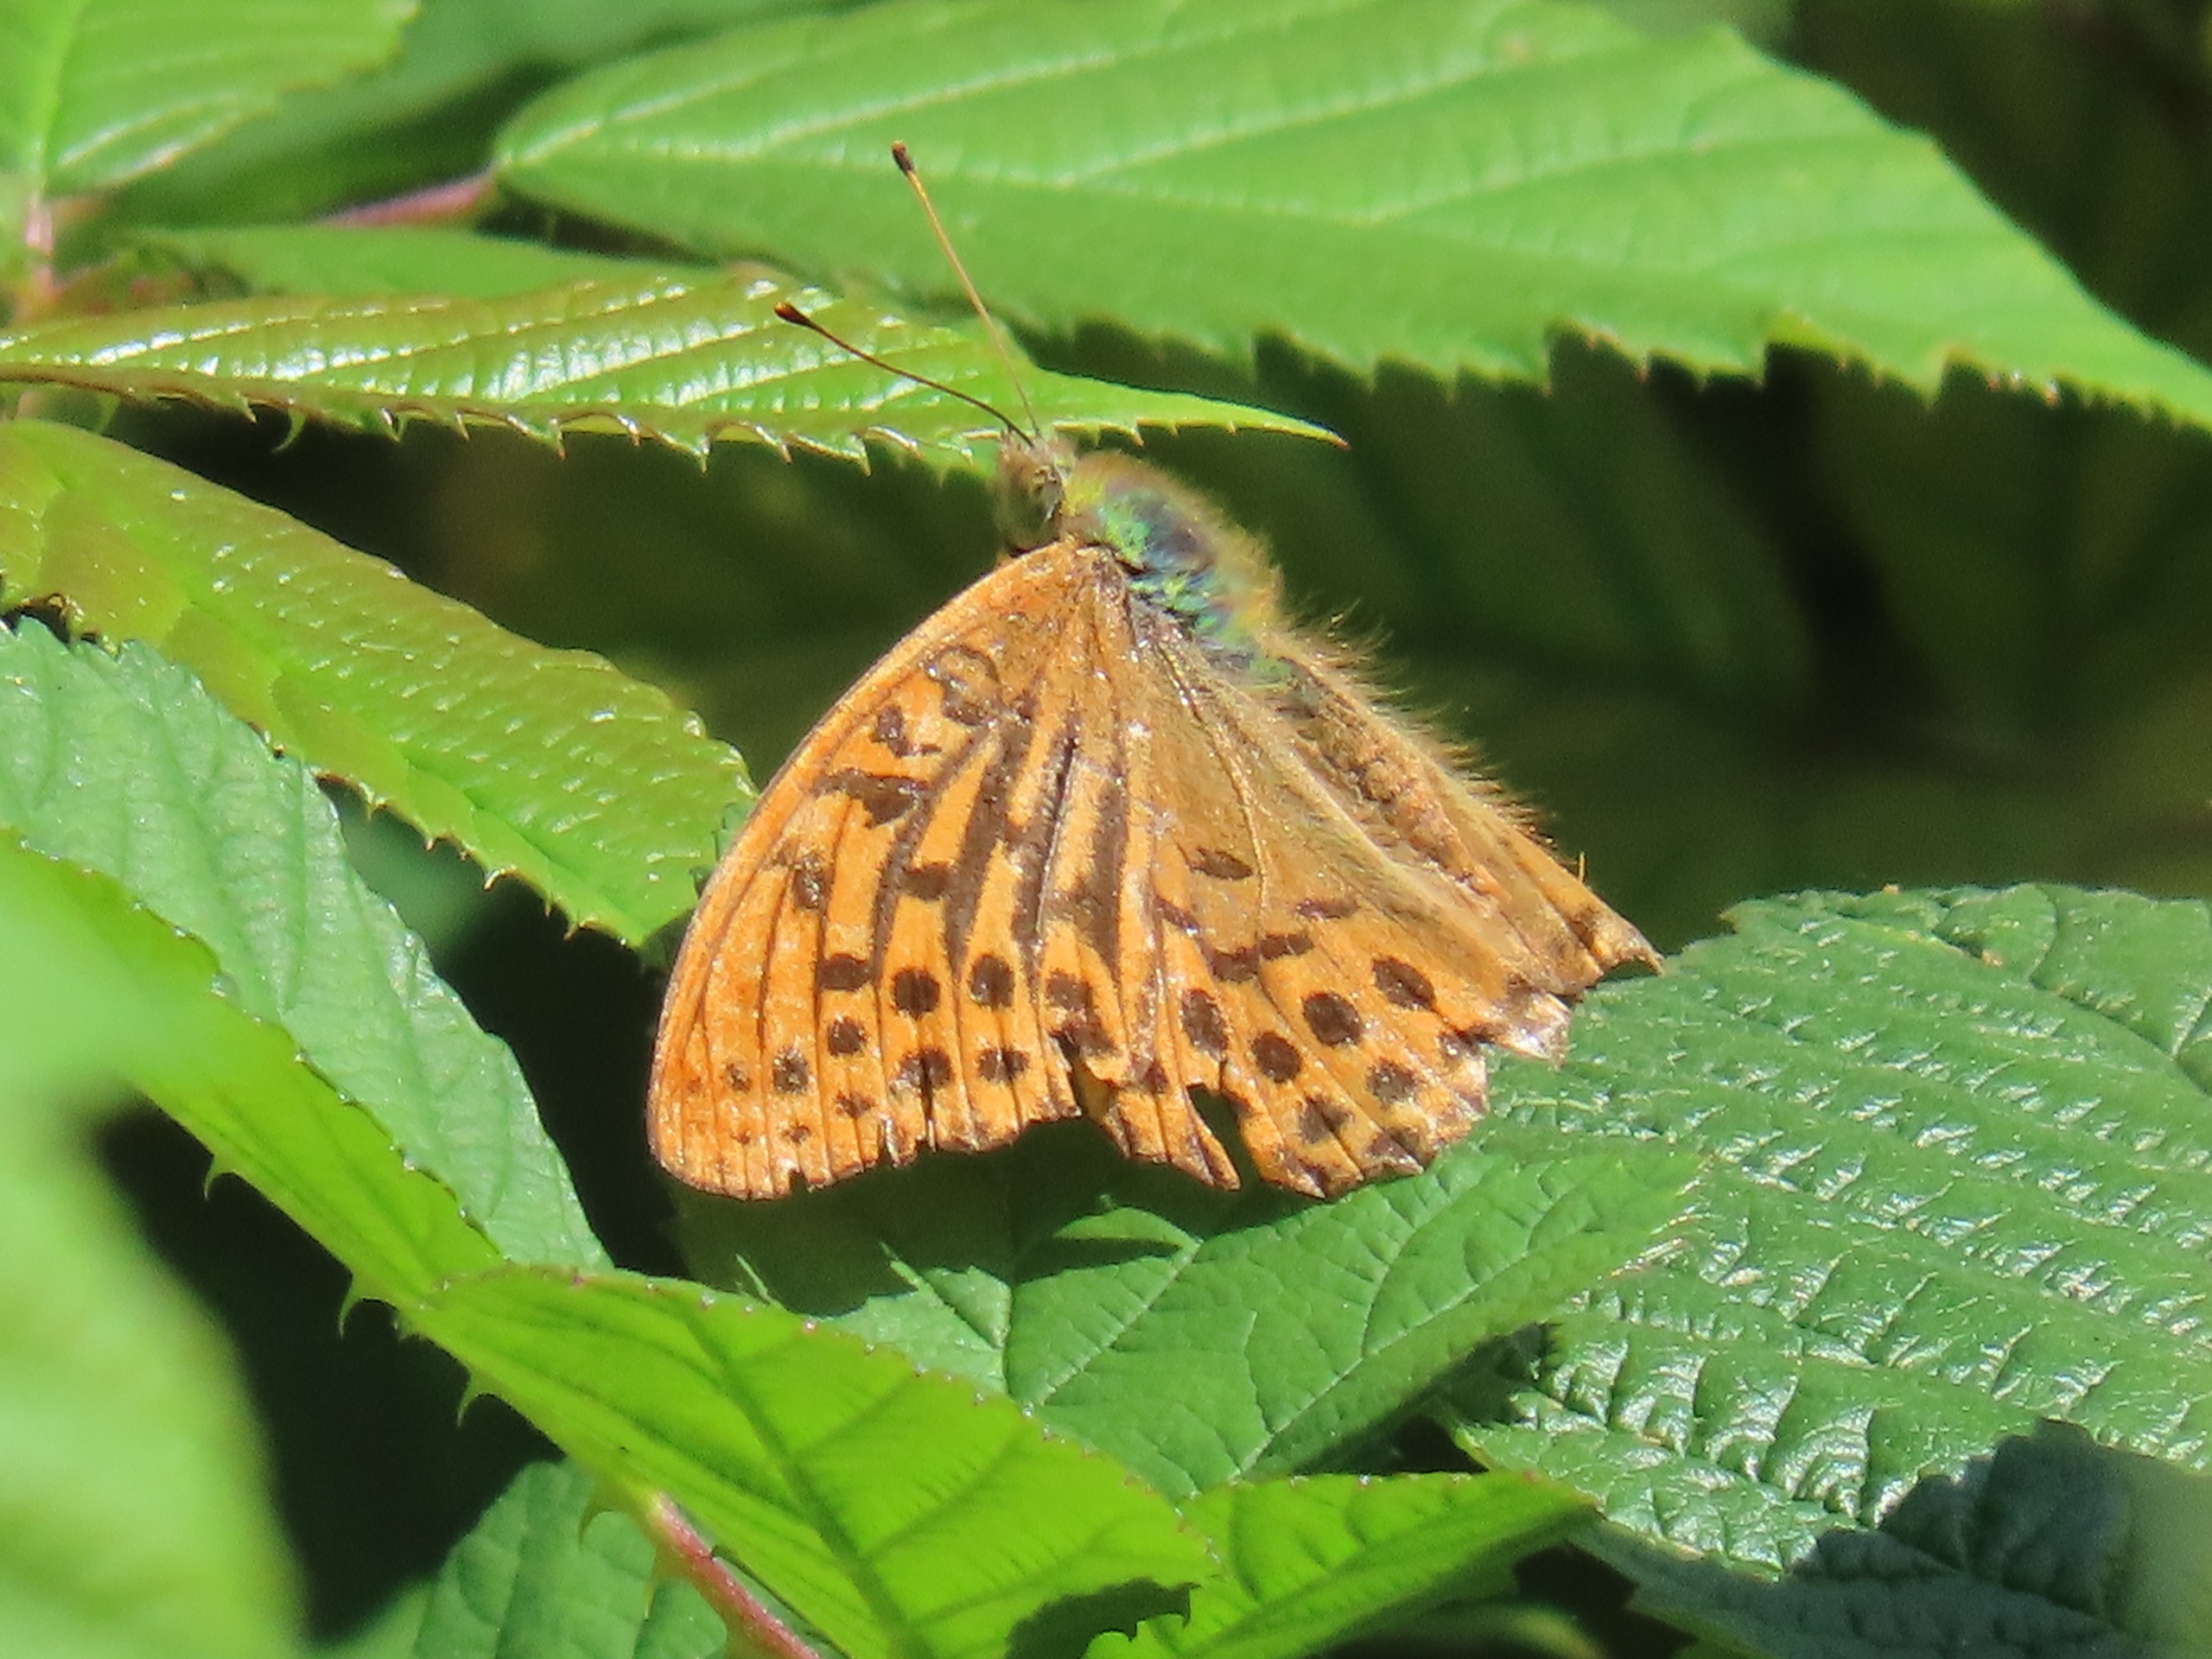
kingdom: Animalia
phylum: Arthropoda
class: Insecta
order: Lepidoptera
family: Nymphalidae
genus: Argynnis
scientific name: Argynnis paphia
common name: Kejserkåbe
